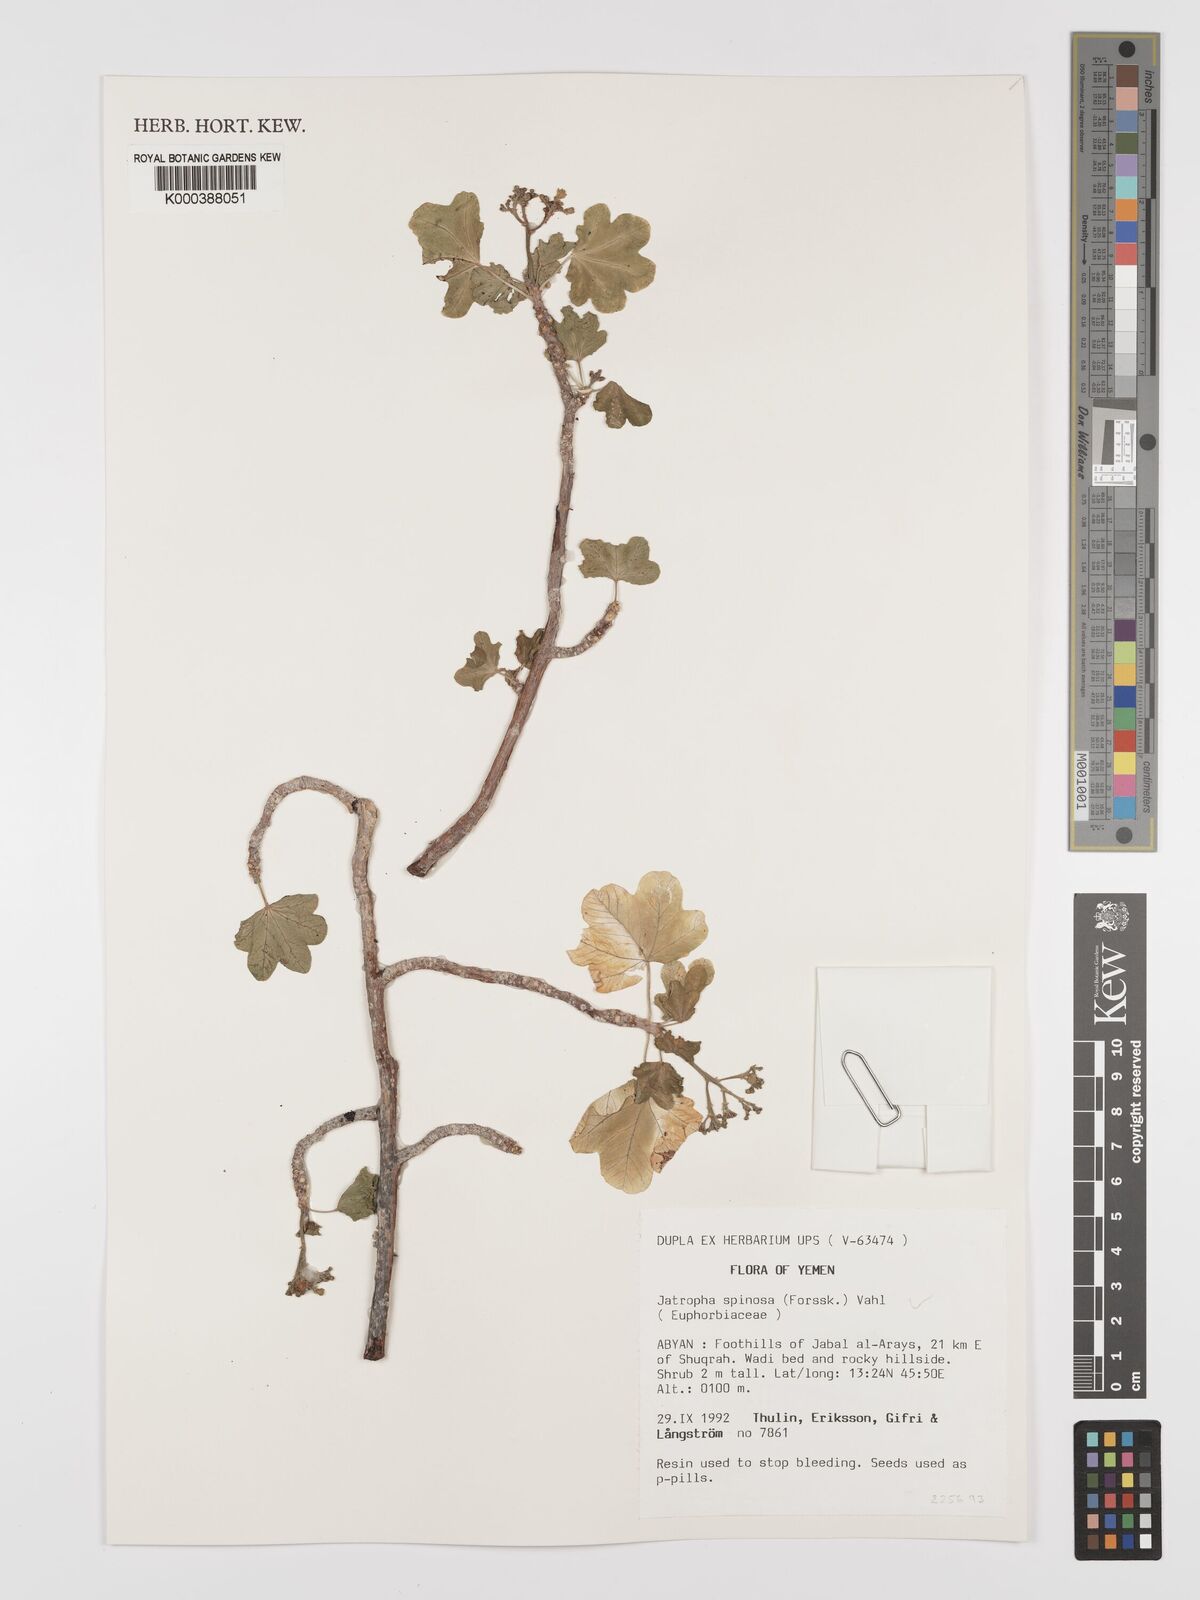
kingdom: Plantae
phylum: Tracheophyta
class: Magnoliopsida
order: Malpighiales
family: Euphorbiaceae
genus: Jatropha
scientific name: Jatropha spinosa
